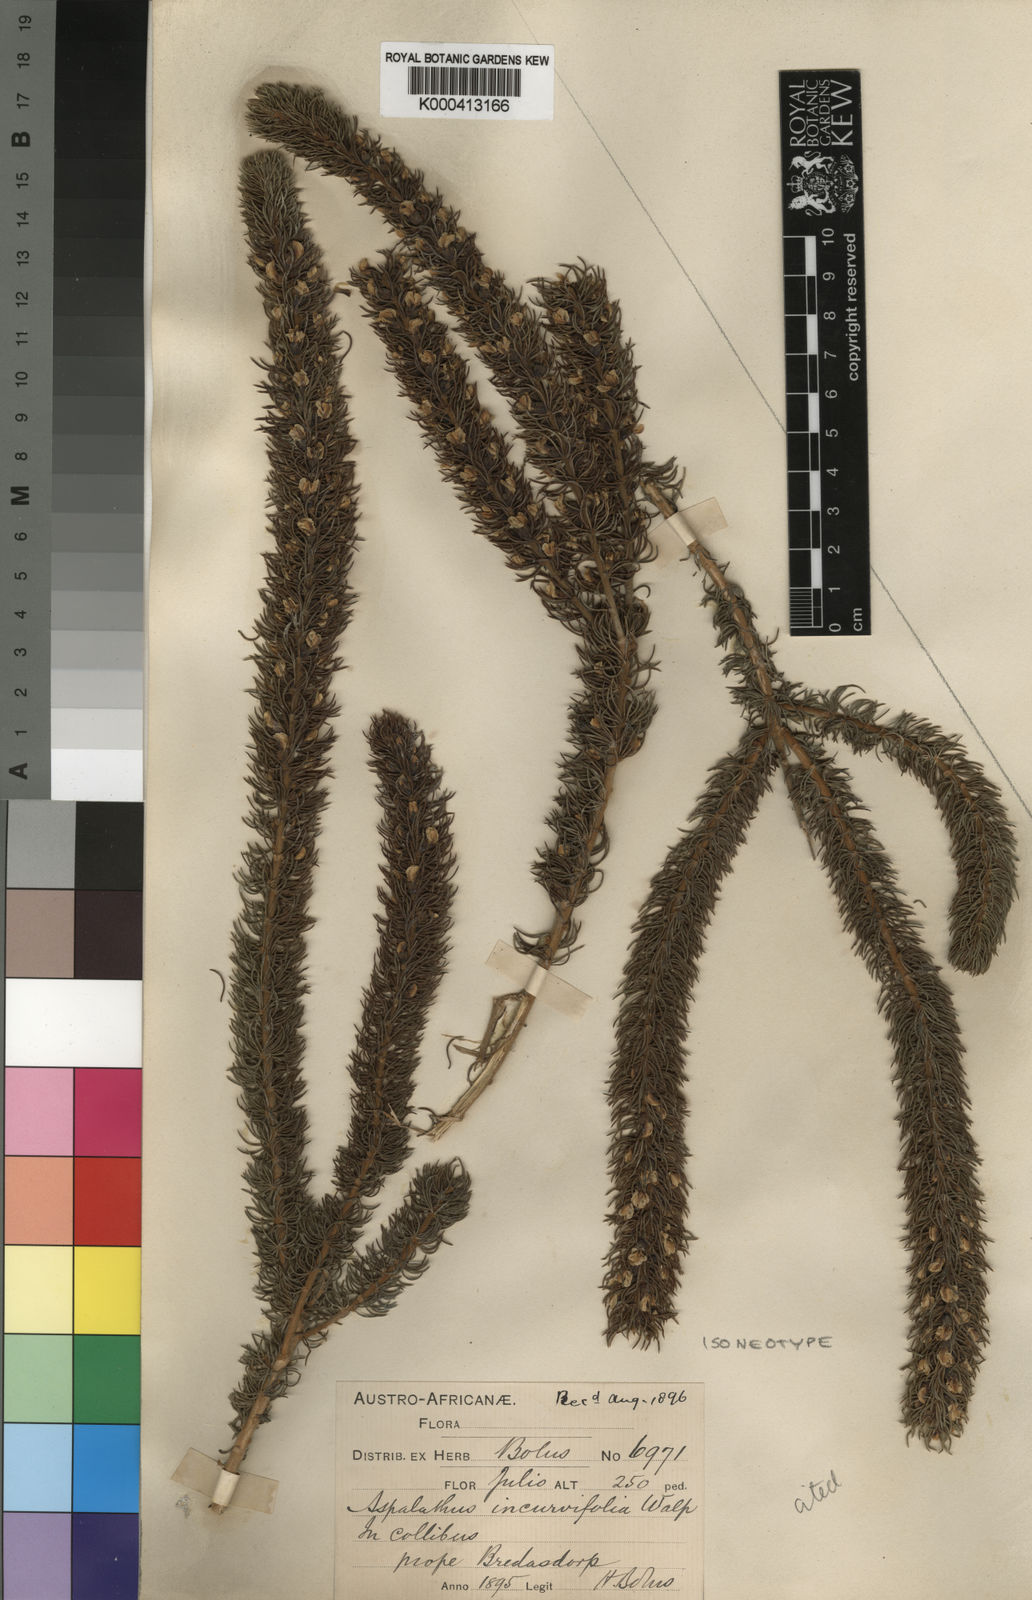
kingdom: Plantae
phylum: Tracheophyta
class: Magnoliopsida
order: Fabales
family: Fabaceae
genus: Aspalathus
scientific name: Aspalathus incurvifolia
